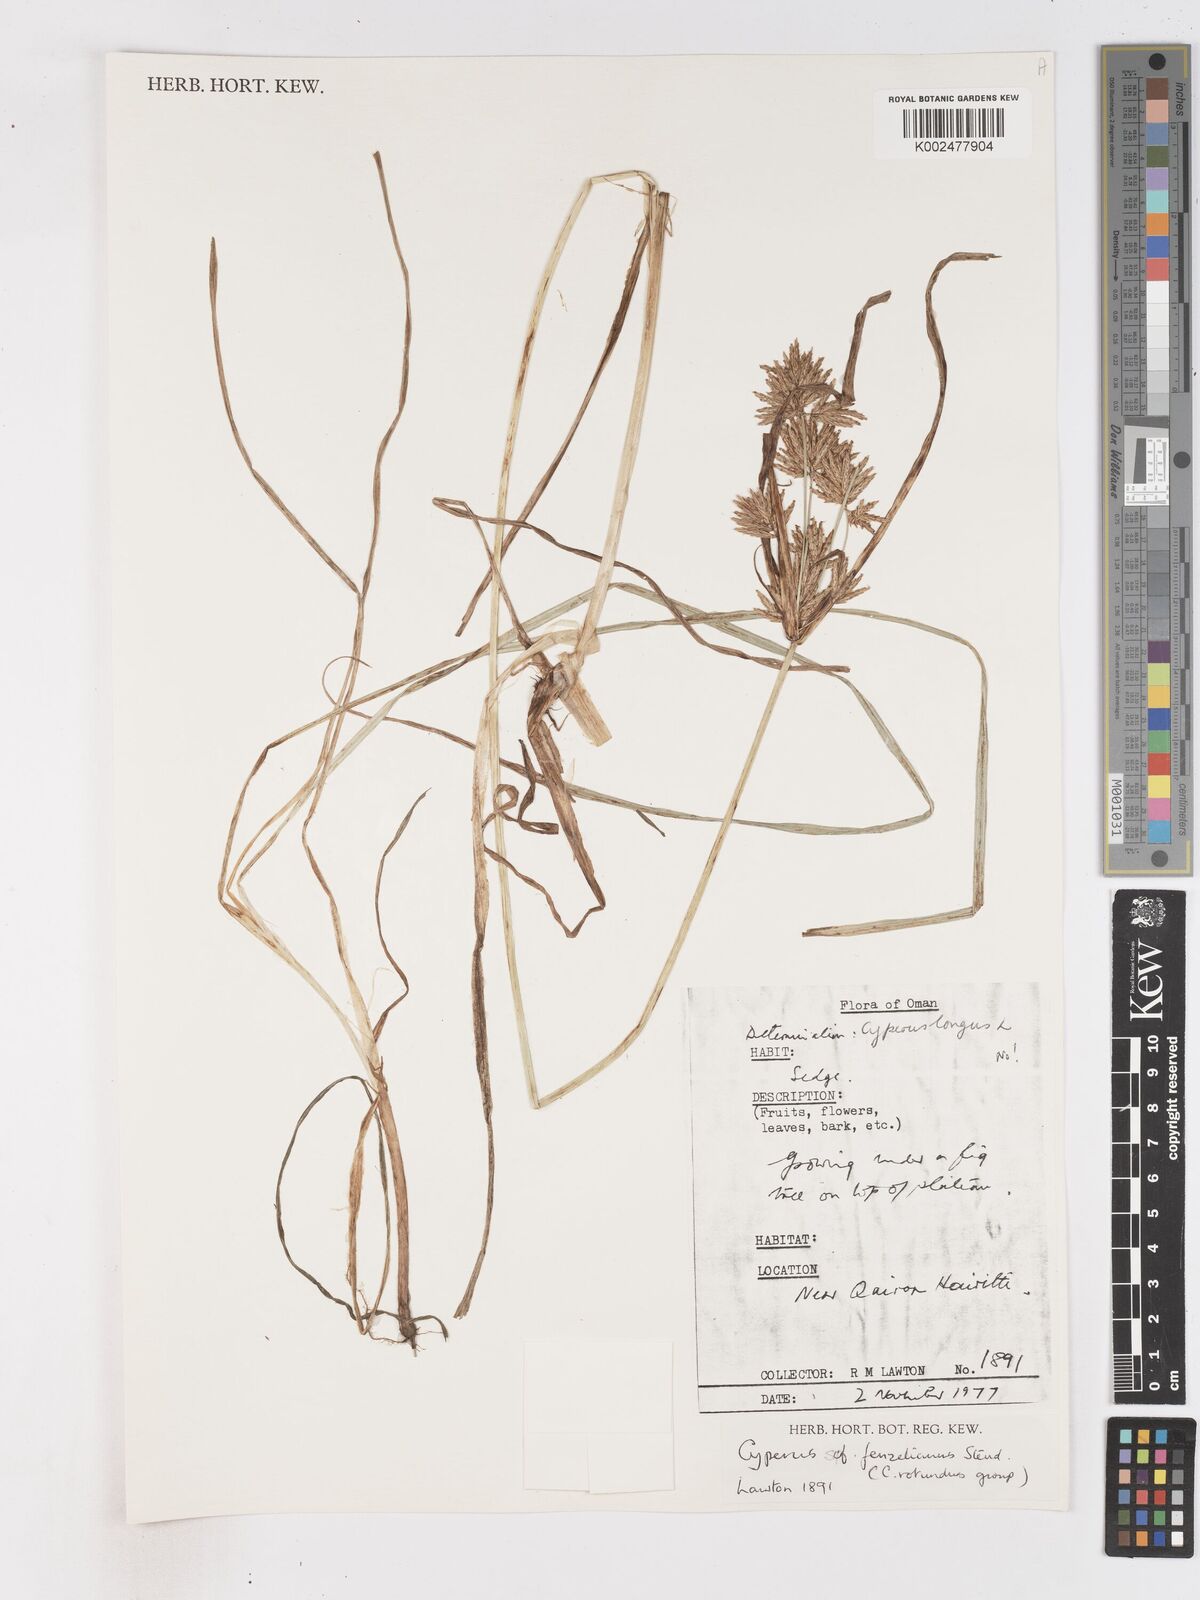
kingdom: Plantae
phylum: Tracheophyta
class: Liliopsida
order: Poales
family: Cyperaceae
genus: Cyperus
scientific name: Cyperus longus
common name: Galingale
